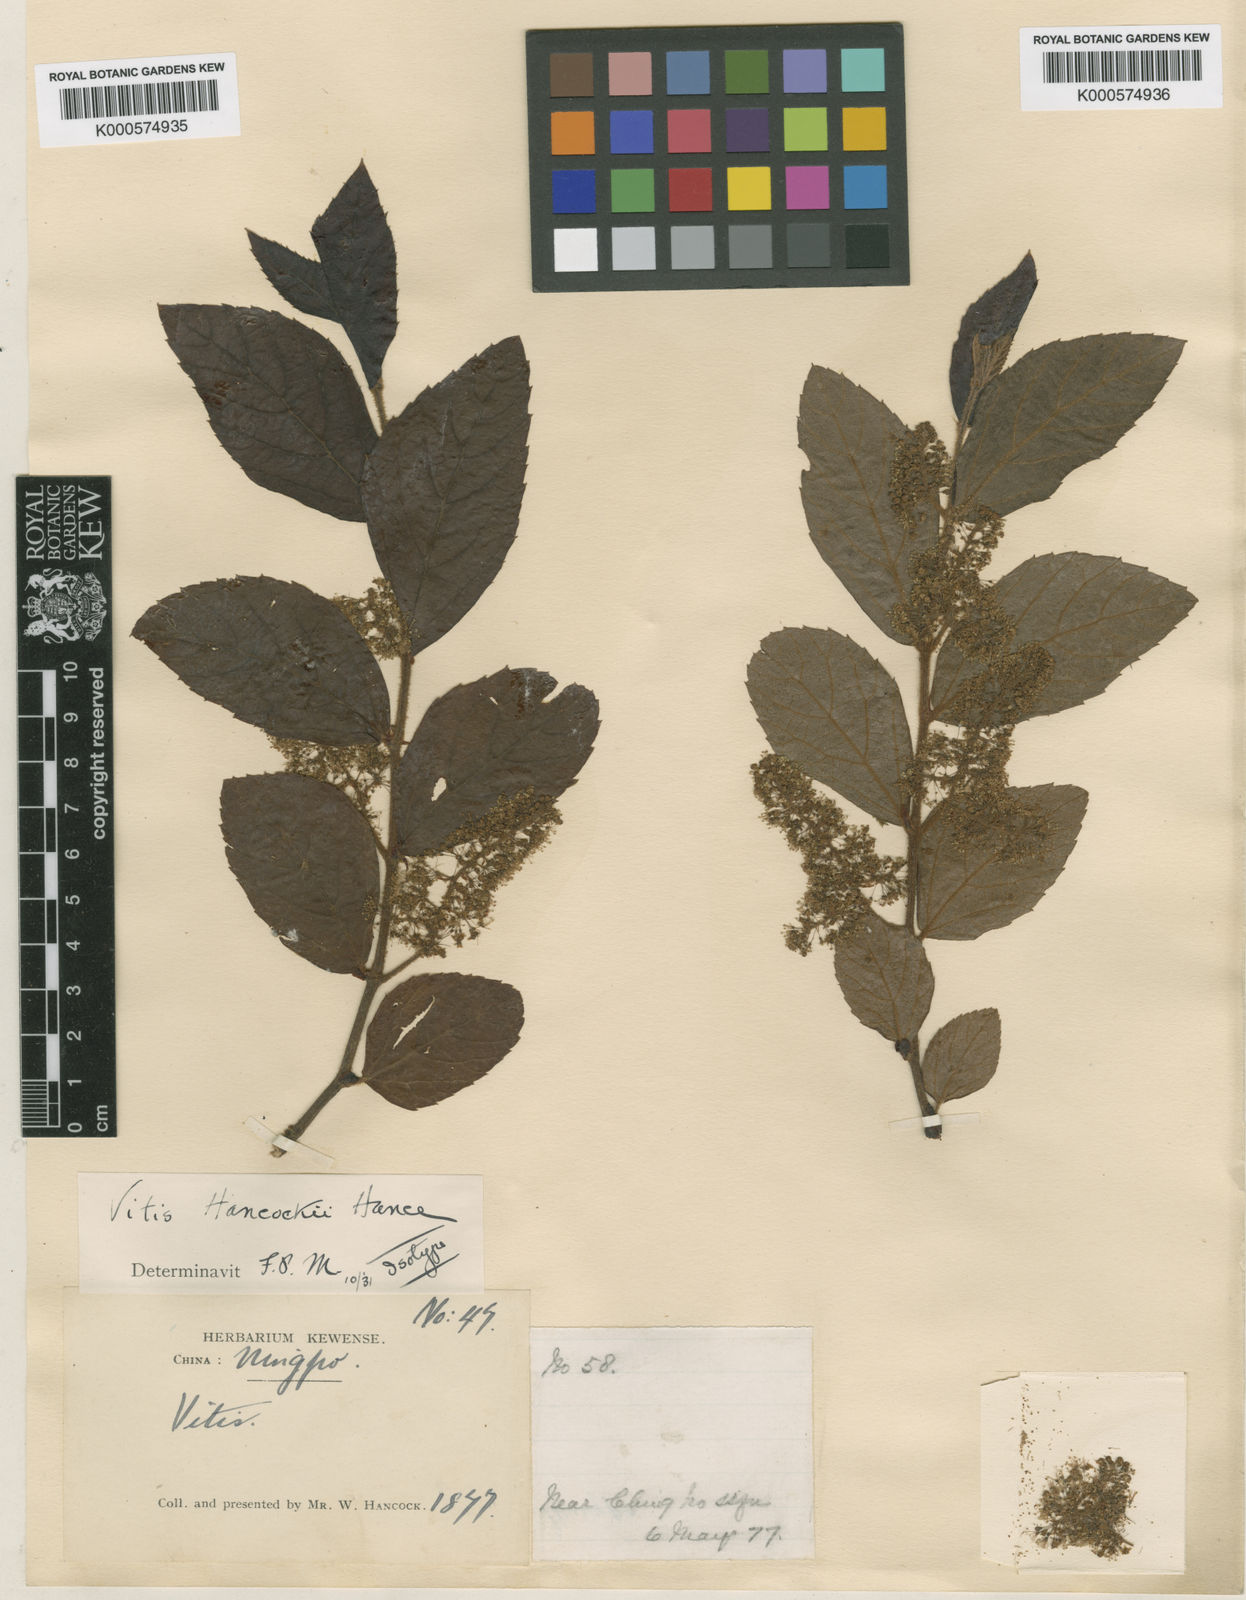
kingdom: Plantae
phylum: Tracheophyta
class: Magnoliopsida
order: Vitales
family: Vitaceae
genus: Vitis
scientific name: Vitis hancockii
